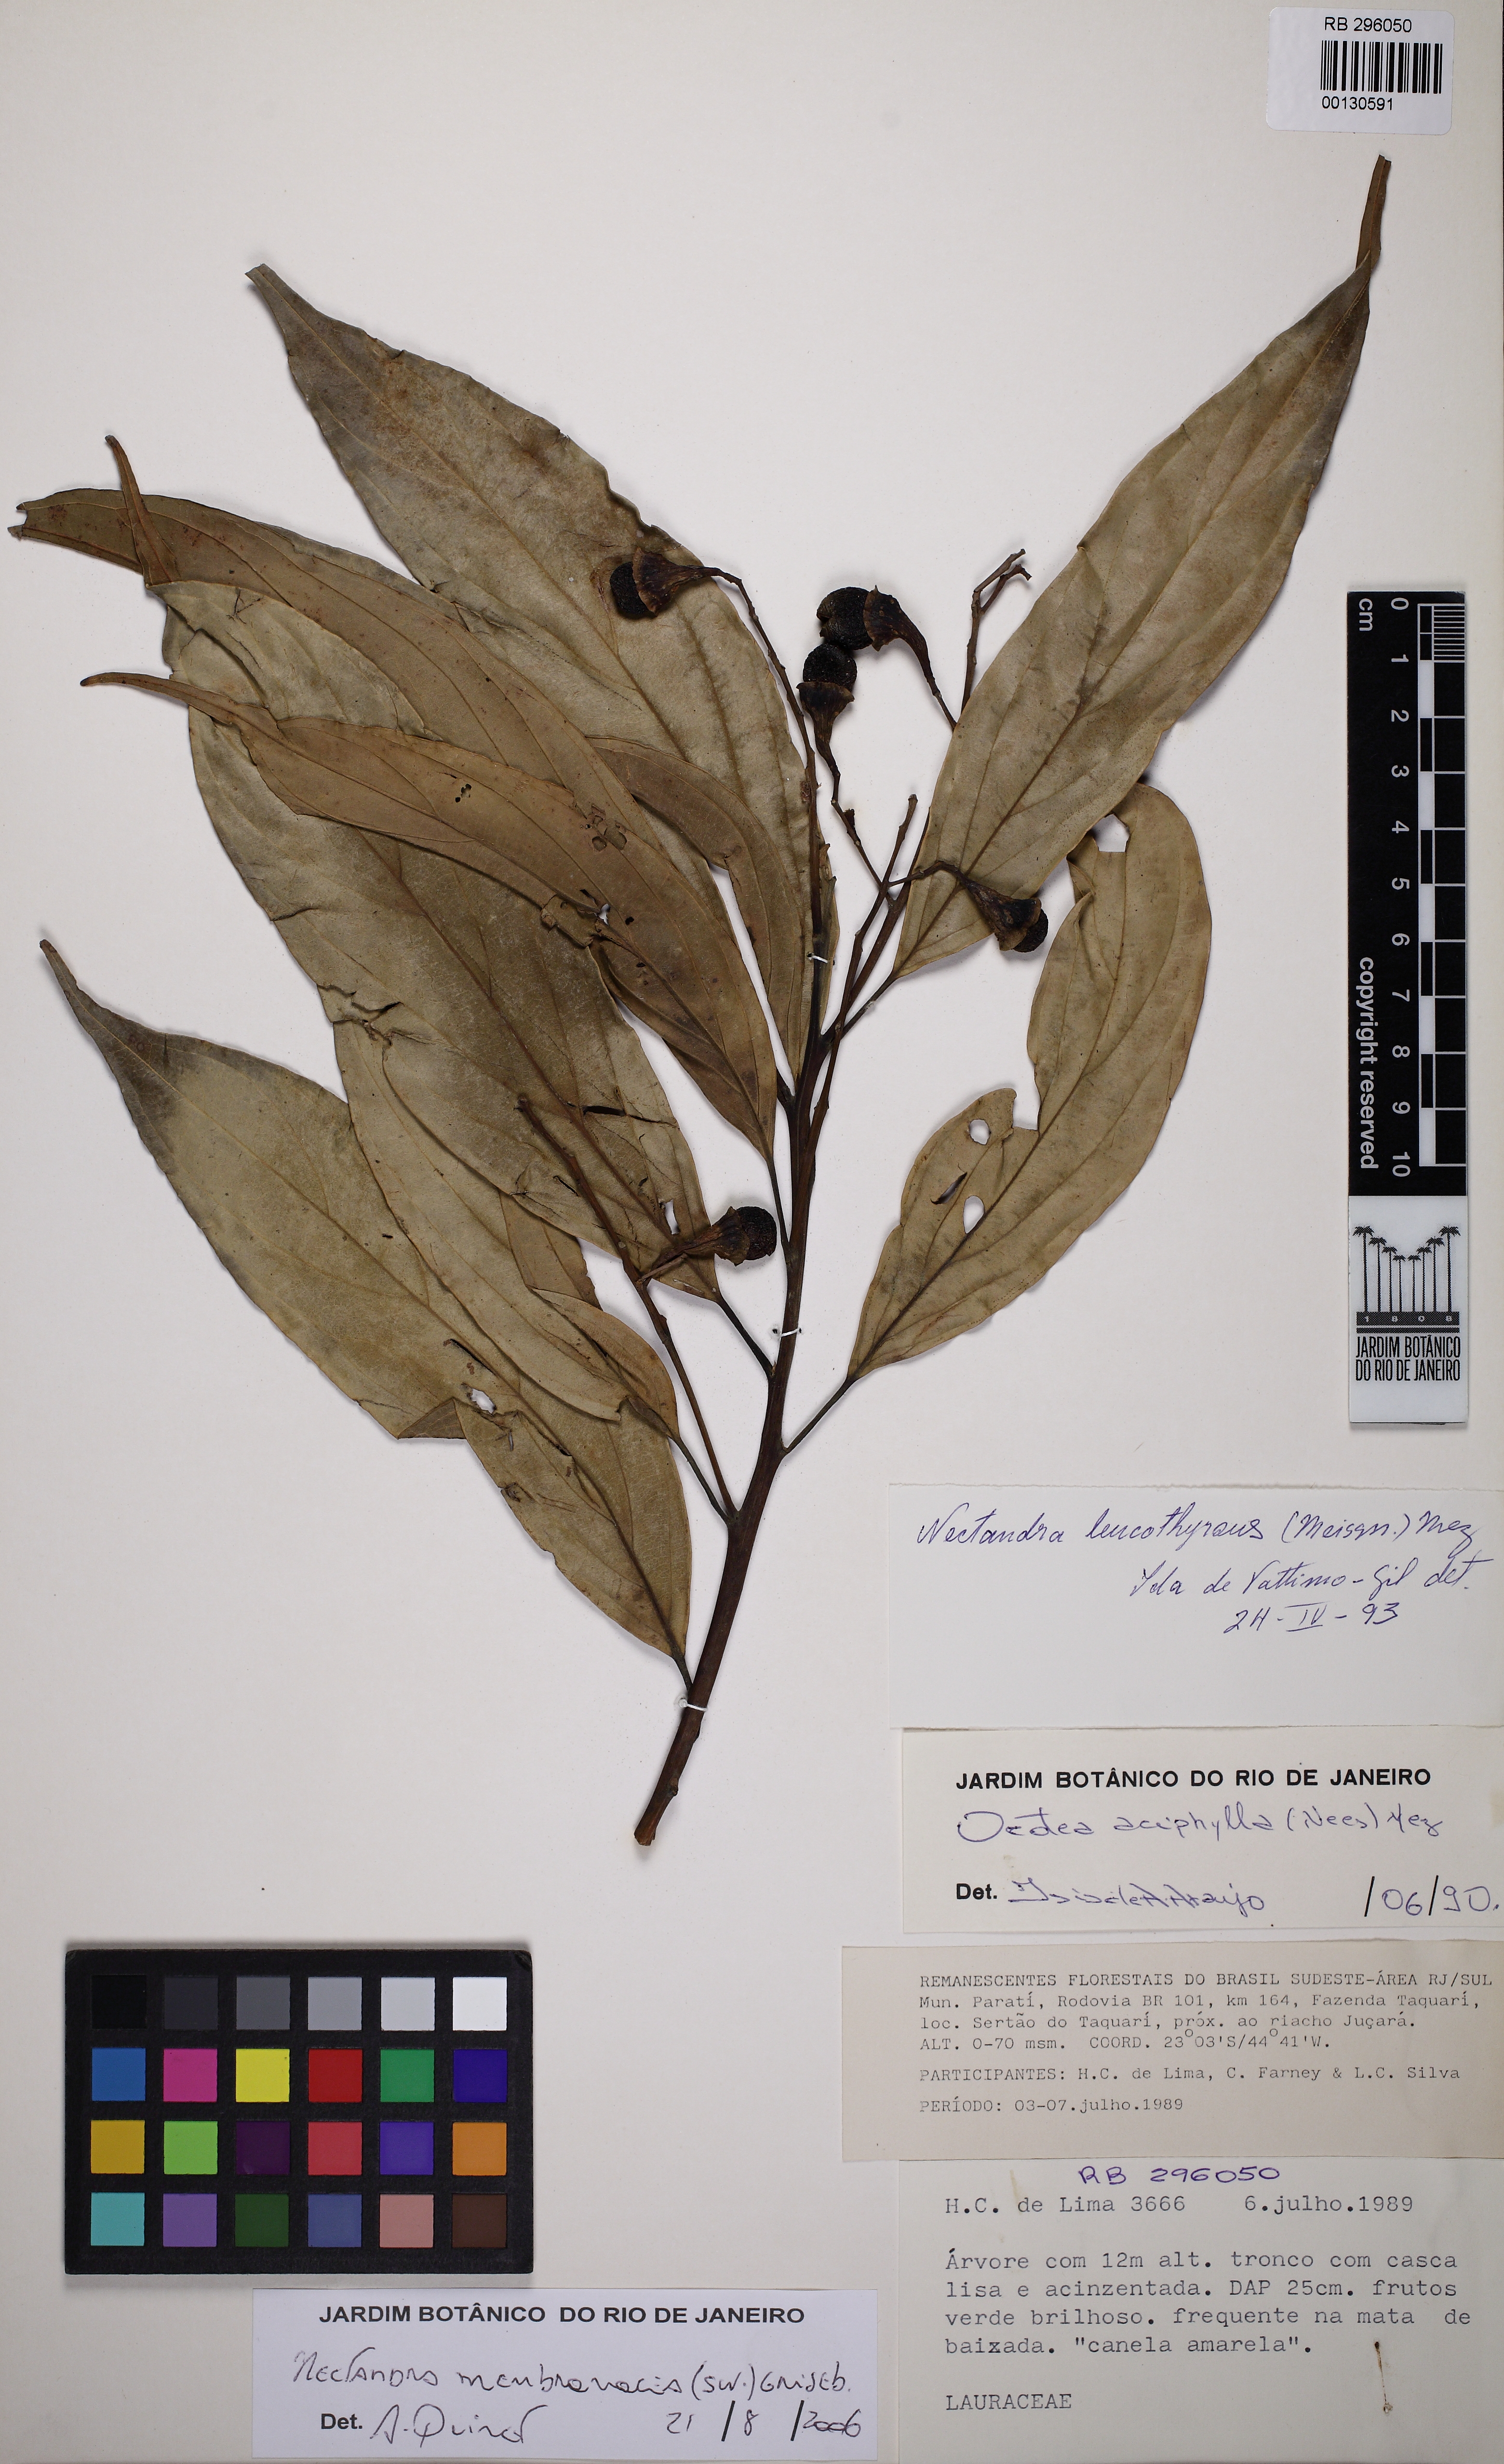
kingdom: Plantae
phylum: Tracheophyta
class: Magnoliopsida
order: Laurales
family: Lauraceae
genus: Nectandra
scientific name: Nectandra membranacea
